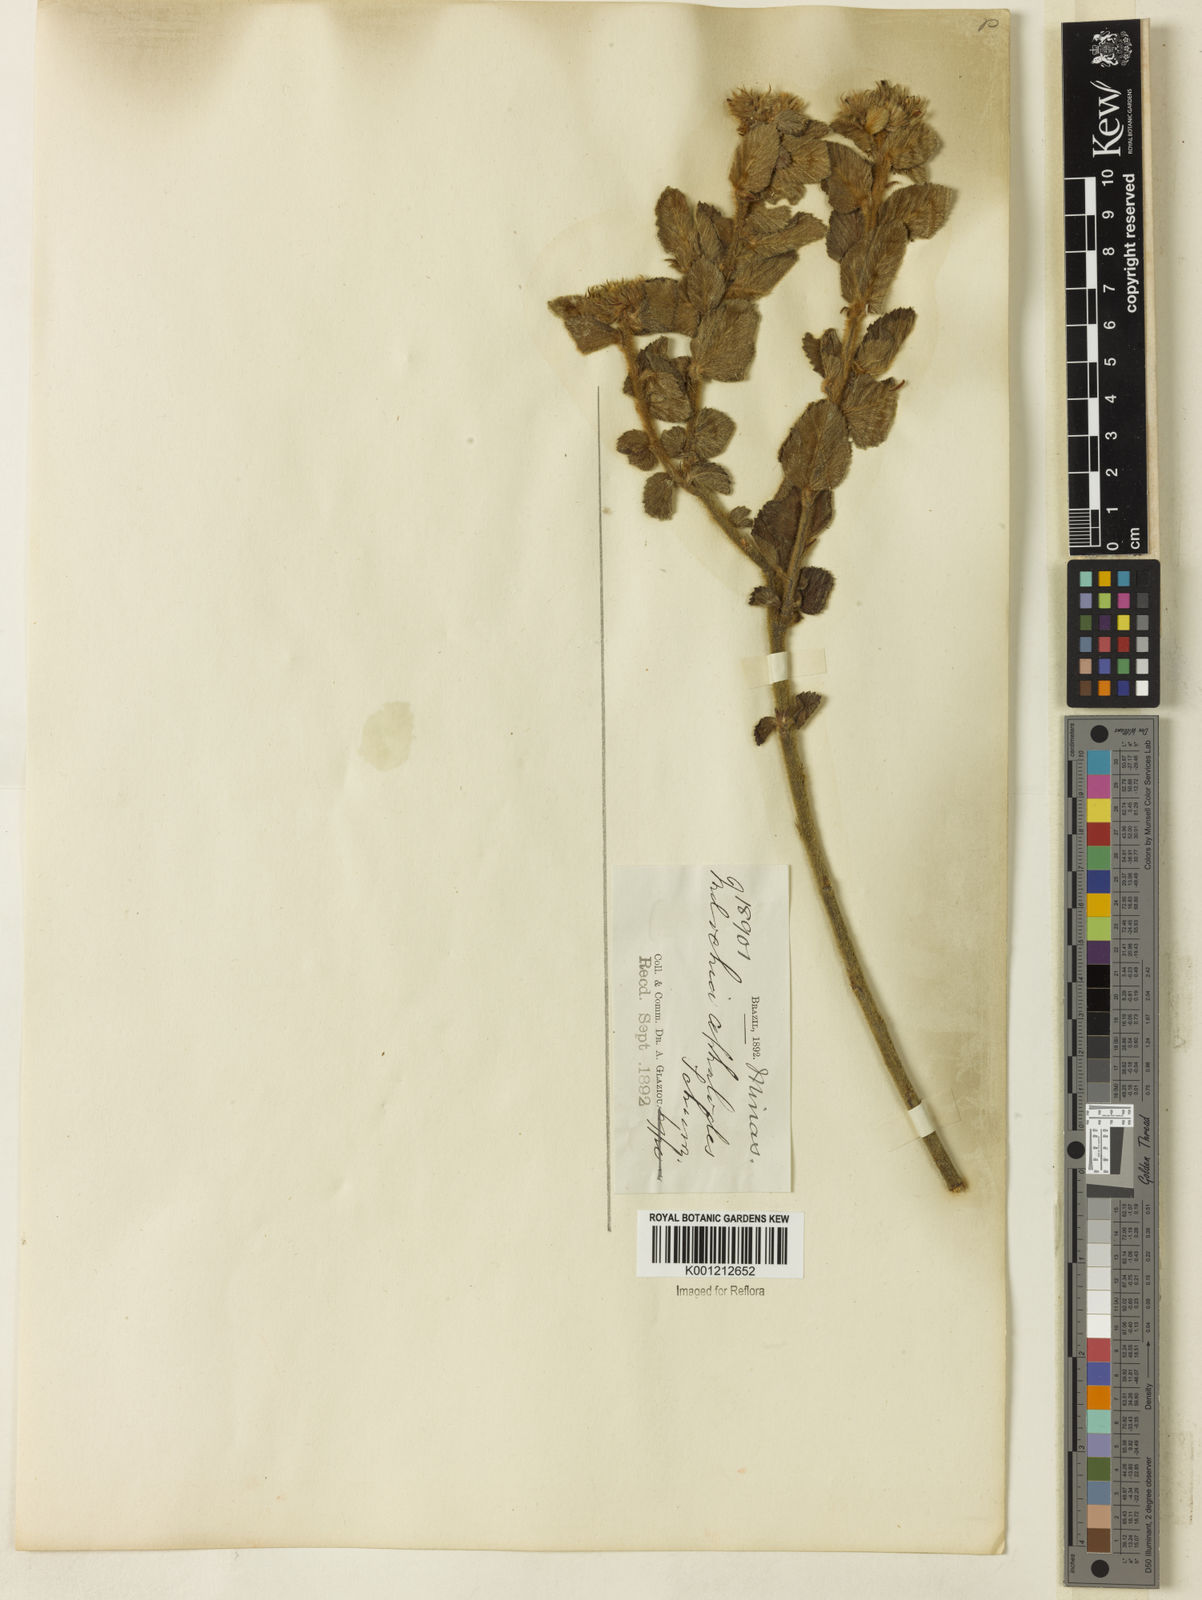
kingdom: Plantae
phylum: Tracheophyta
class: Magnoliopsida
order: Malvales
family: Malvaceae
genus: Melochia
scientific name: Melochia spicata
